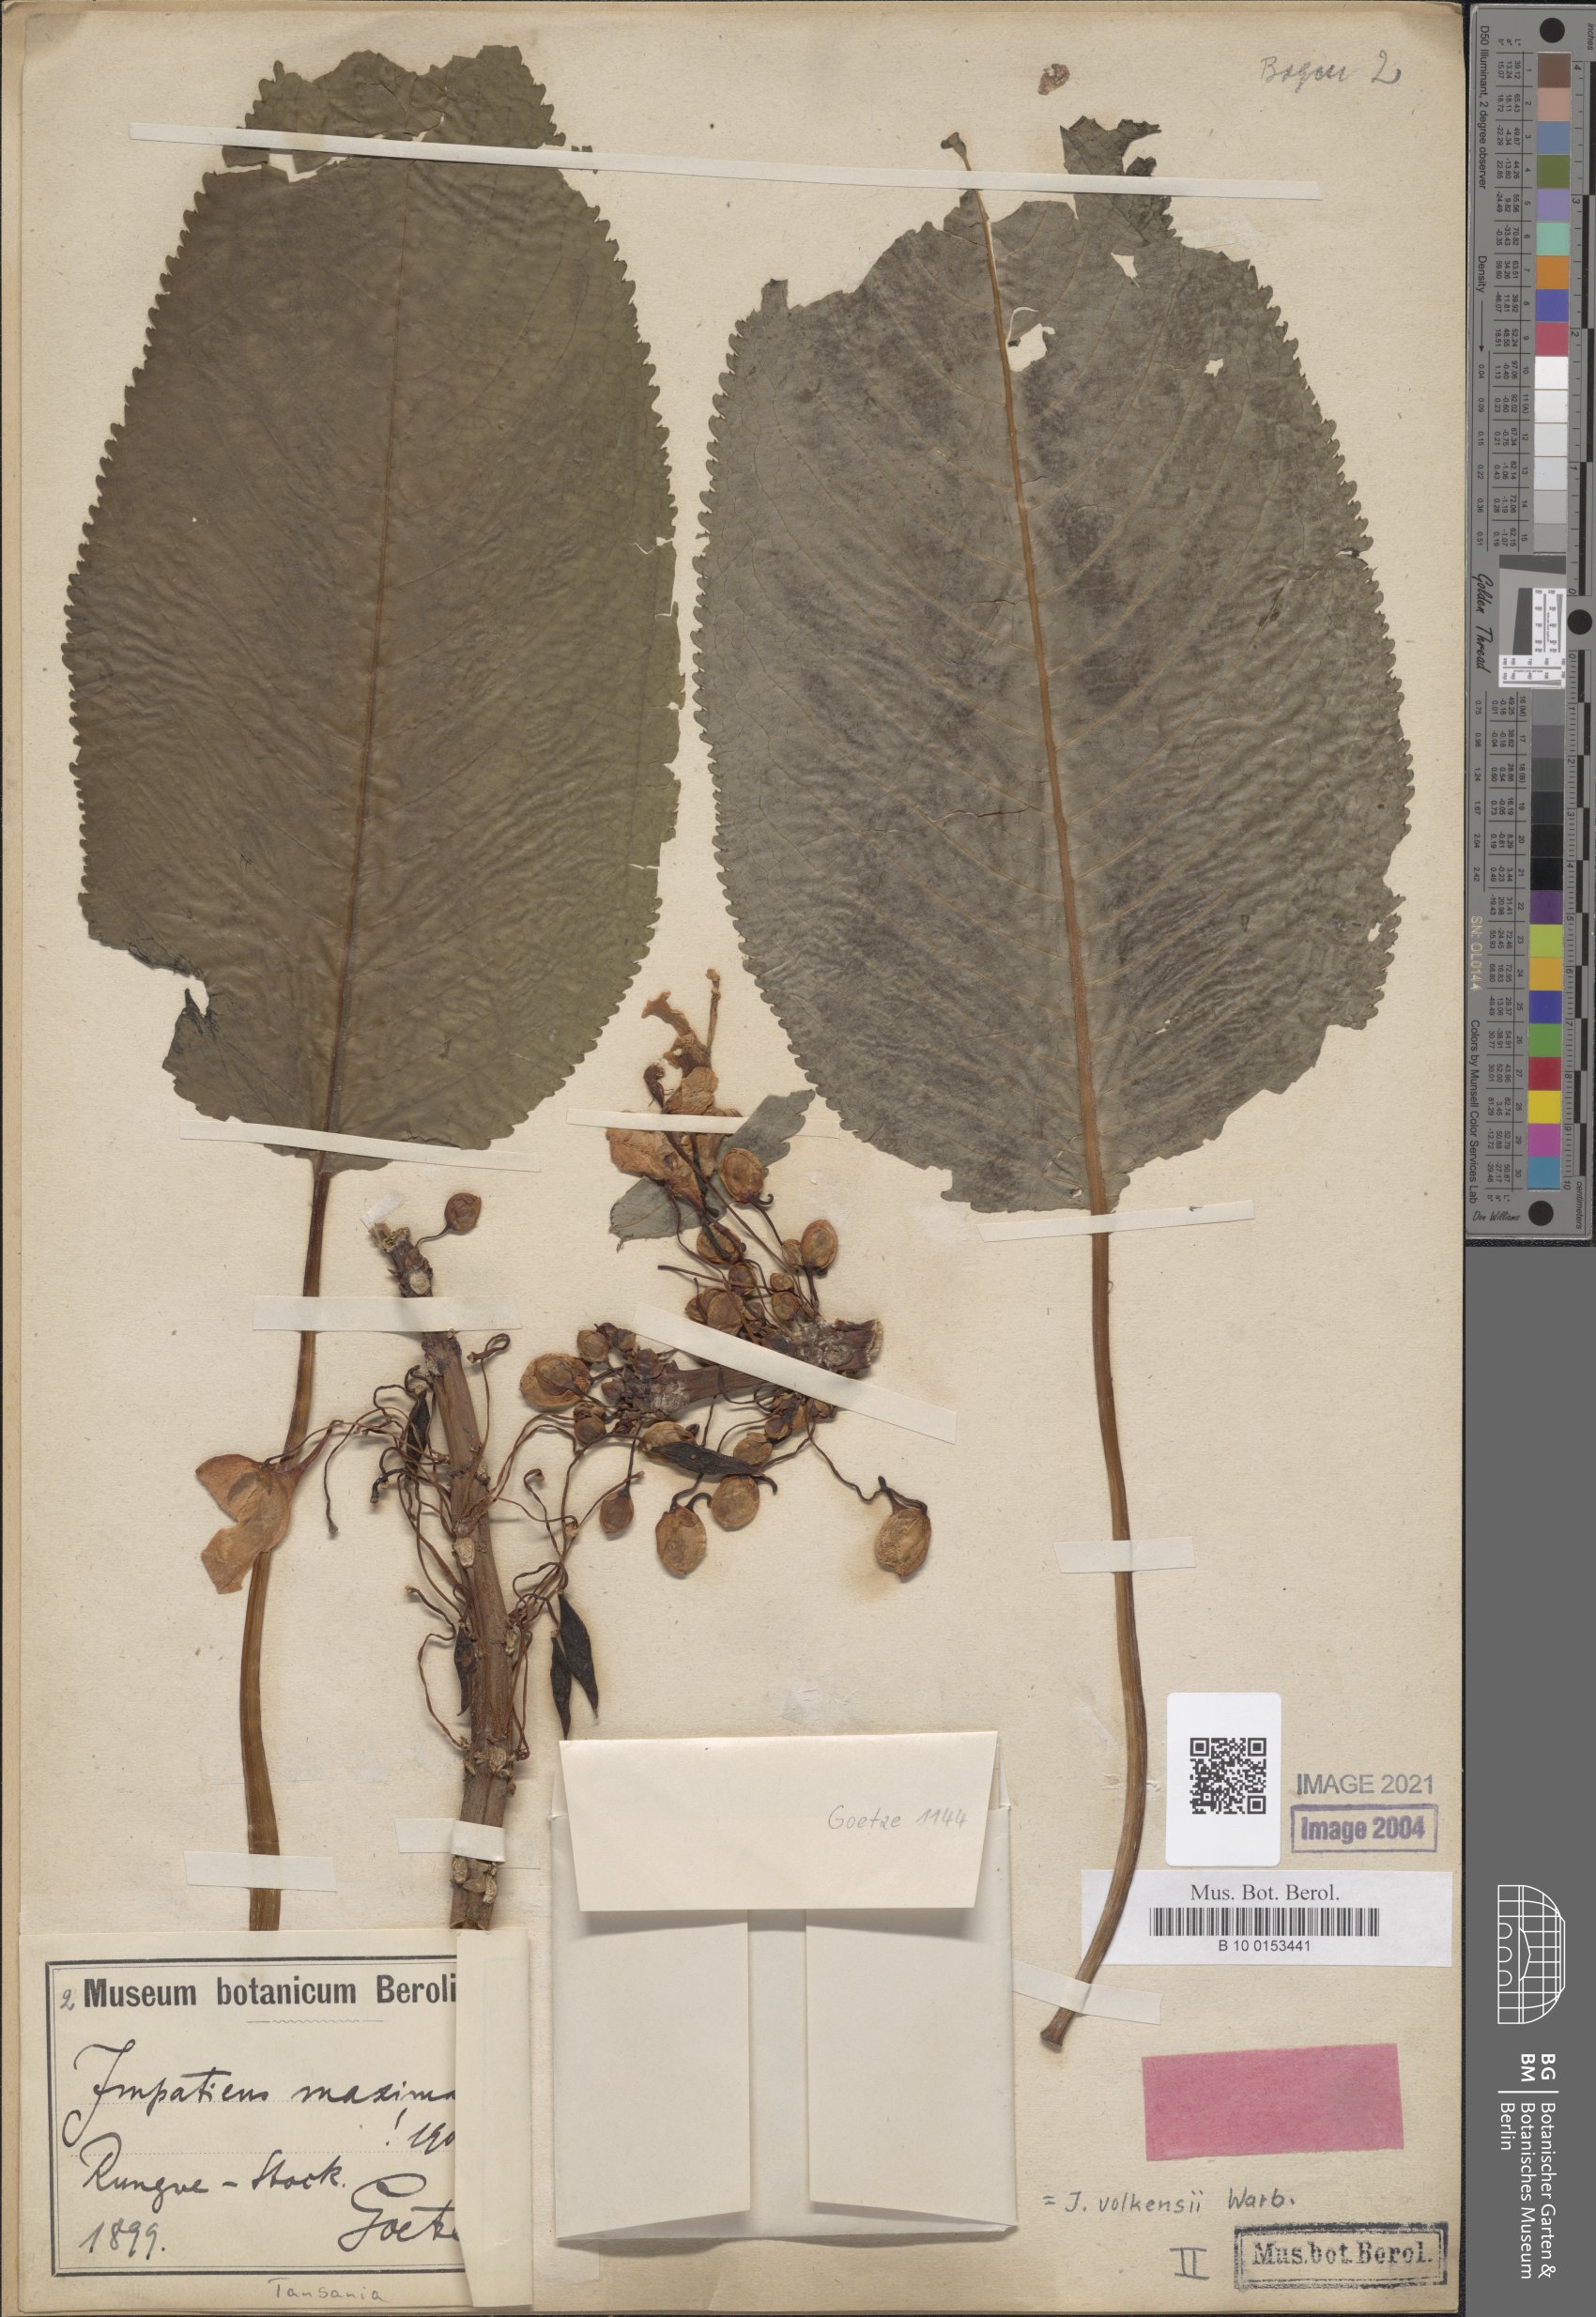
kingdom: Plantae
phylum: Tracheophyta
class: Magnoliopsida
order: Ericales
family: Balsaminaceae
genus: Impatiens
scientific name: Impatiens volkensii
